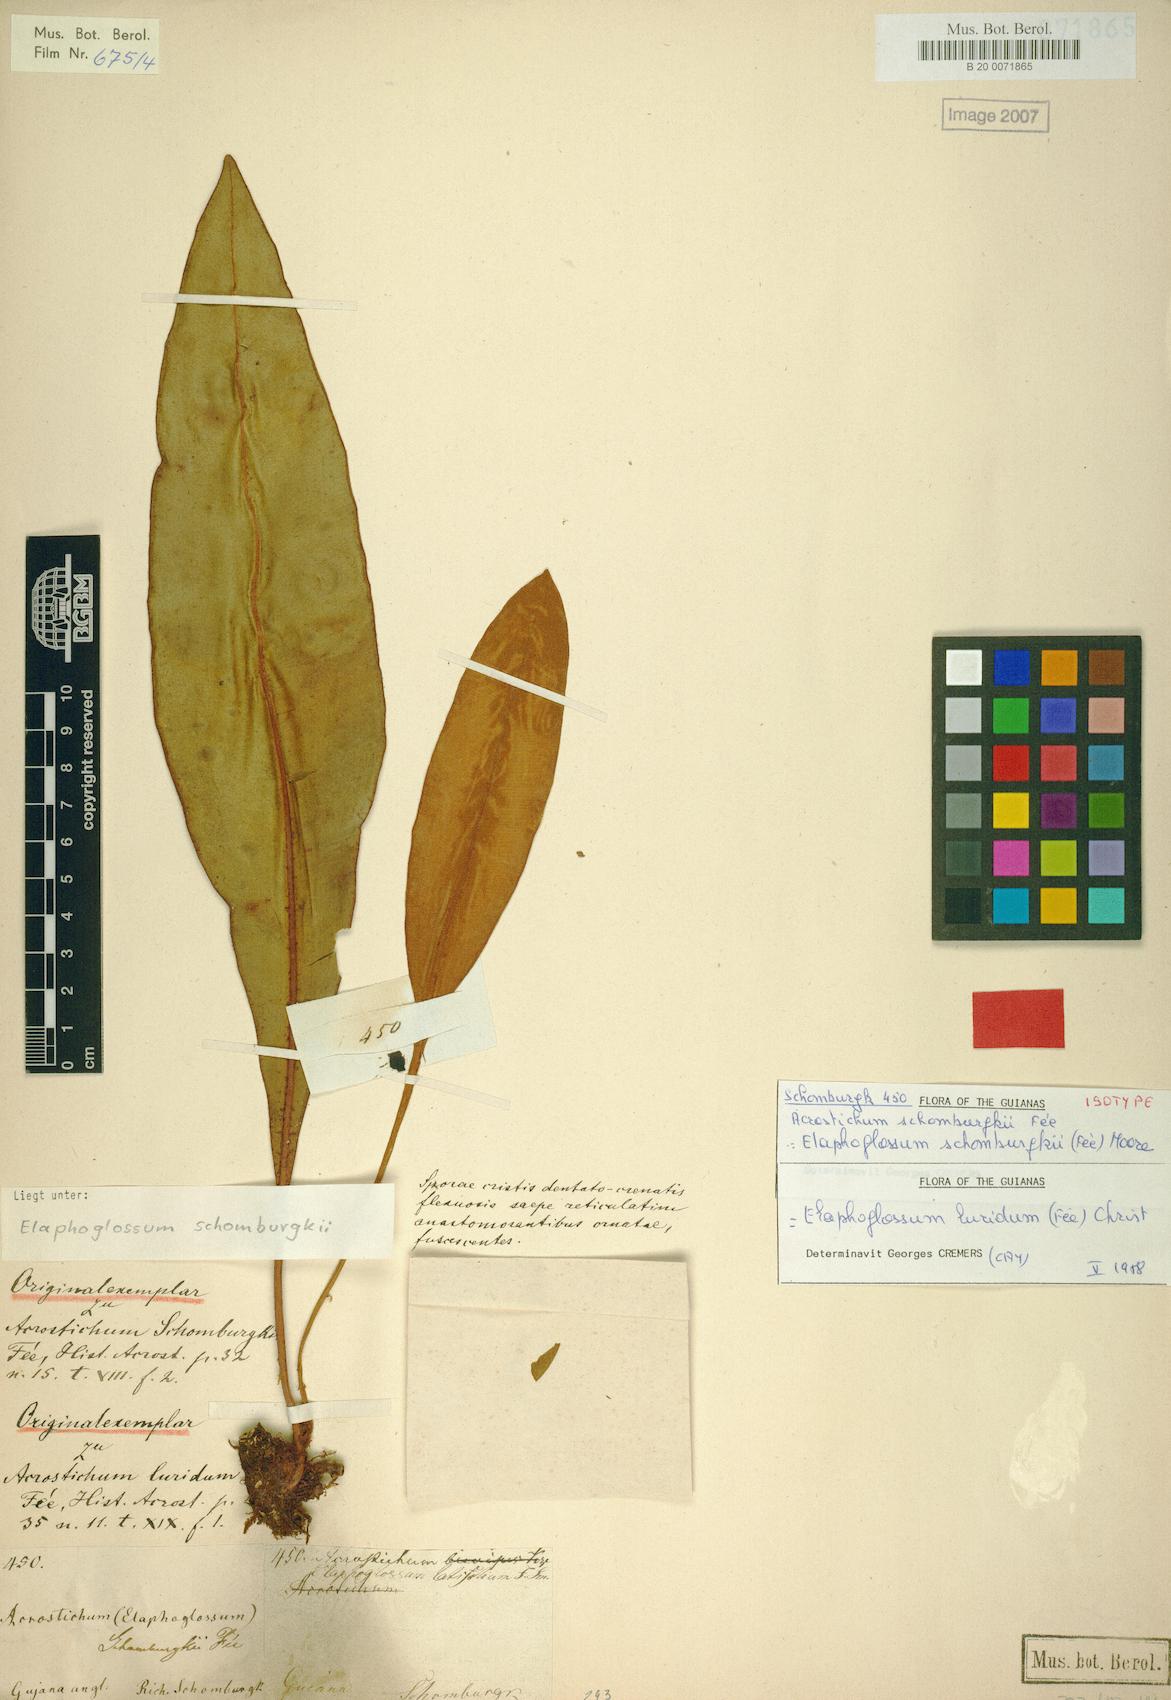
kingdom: Plantae
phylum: Tracheophyta
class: Polypodiopsida
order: Polypodiales
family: Dryopteridaceae
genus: Elaphoglossum
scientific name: Elaphoglossum luridum
